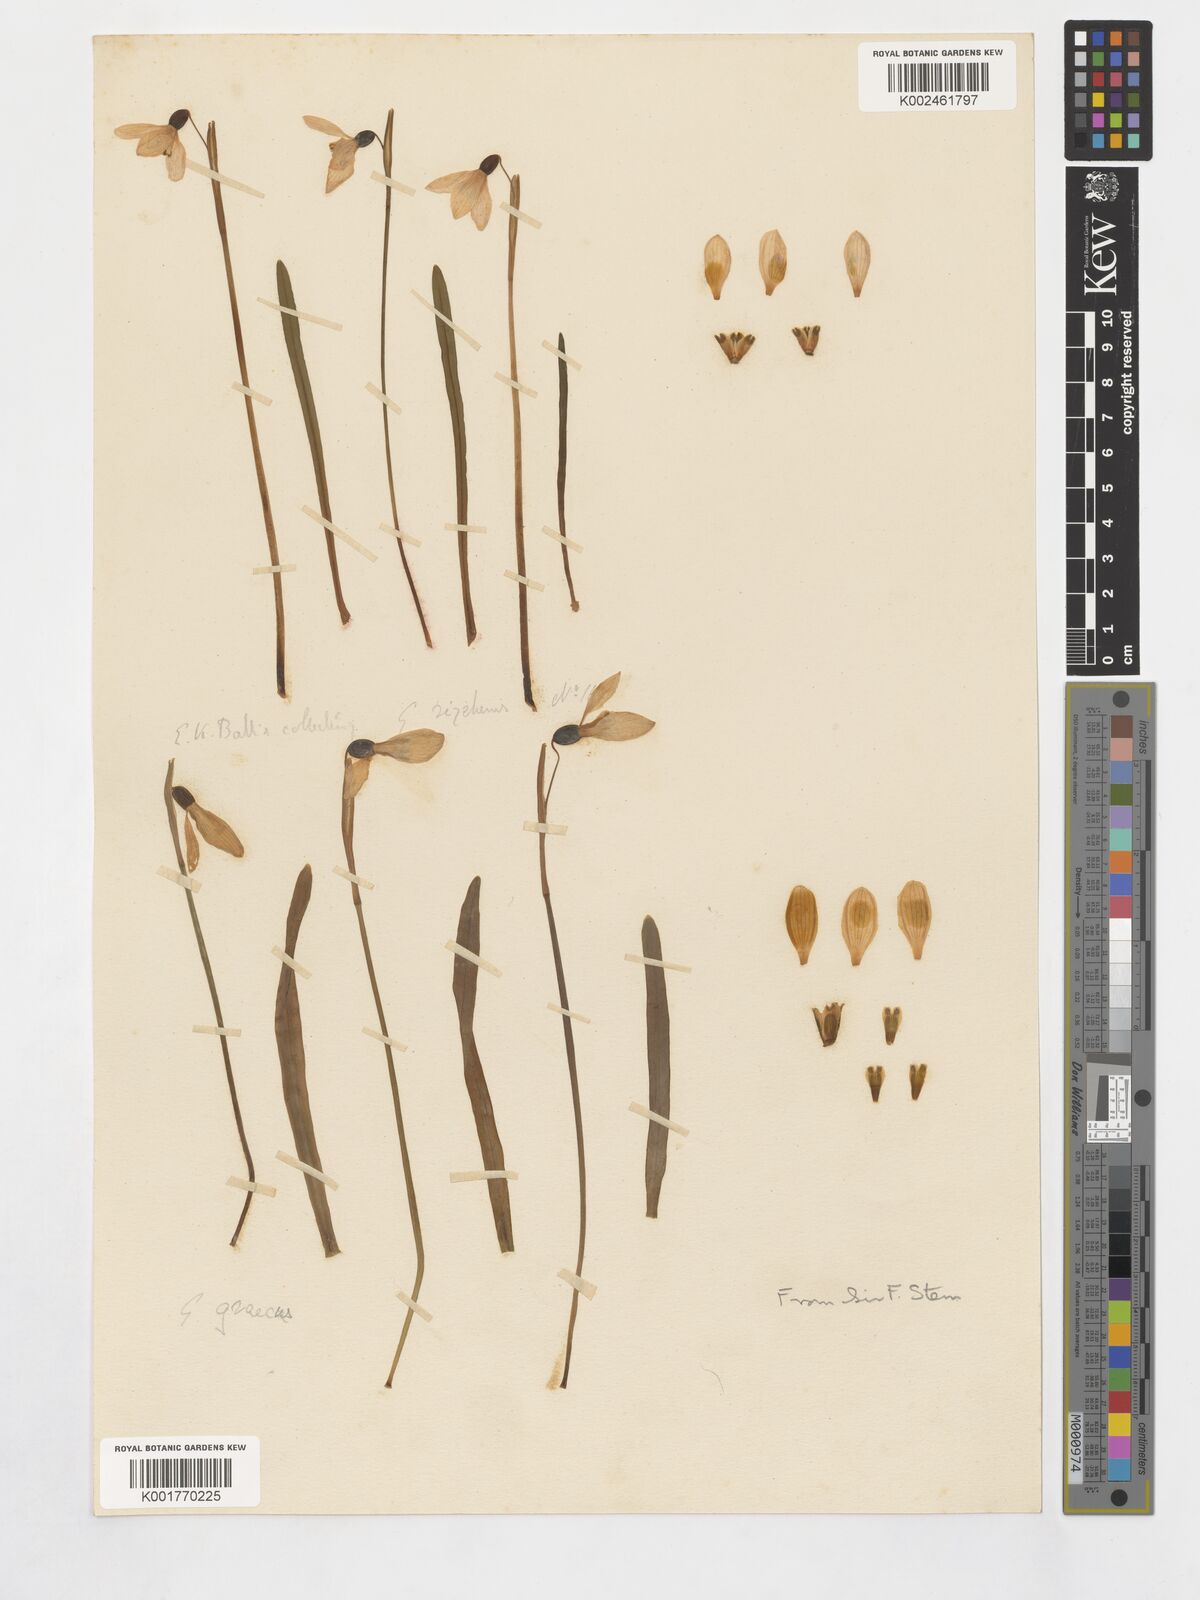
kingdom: Plantae
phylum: Tracheophyta
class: Liliopsida
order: Asparagales
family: Amaryllidaceae
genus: Galanthus
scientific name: Galanthus rizehensis
